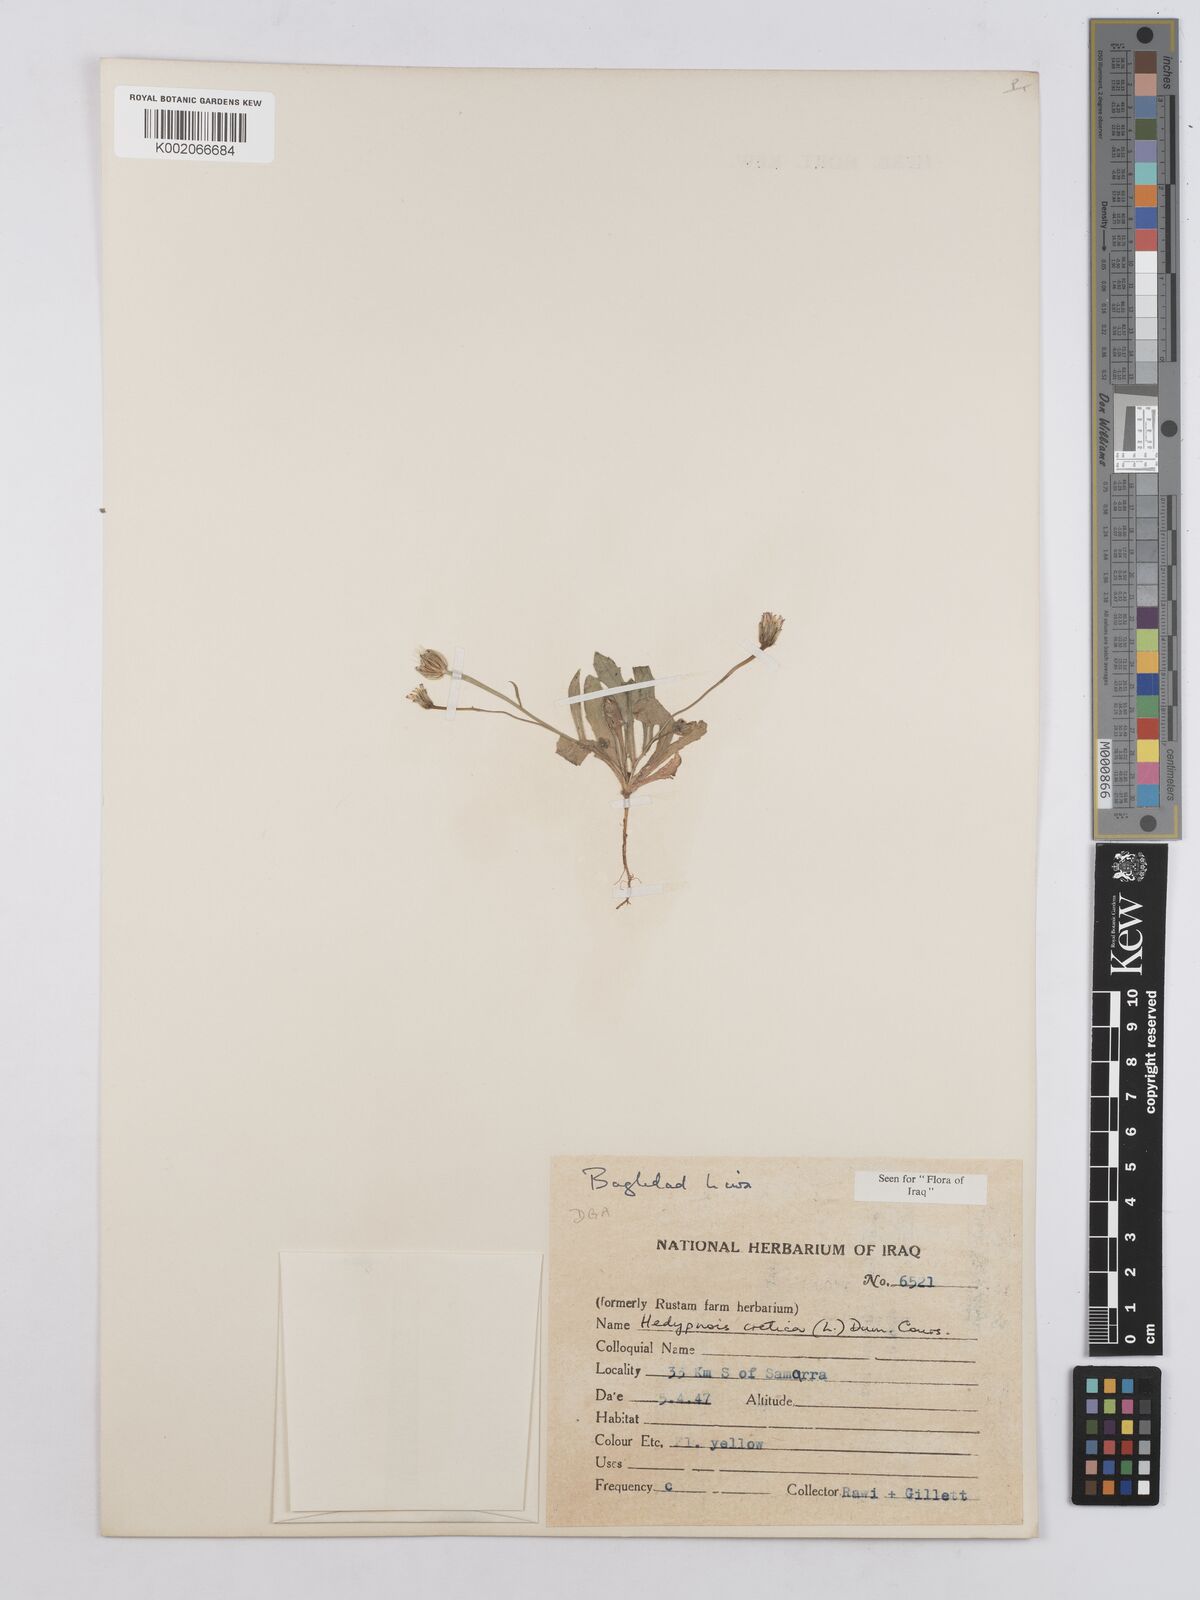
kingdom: Plantae
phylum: Tracheophyta
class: Magnoliopsida
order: Asterales
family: Asteraceae
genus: Hedypnois
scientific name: Hedypnois cretica
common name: Scaly hawkbit
